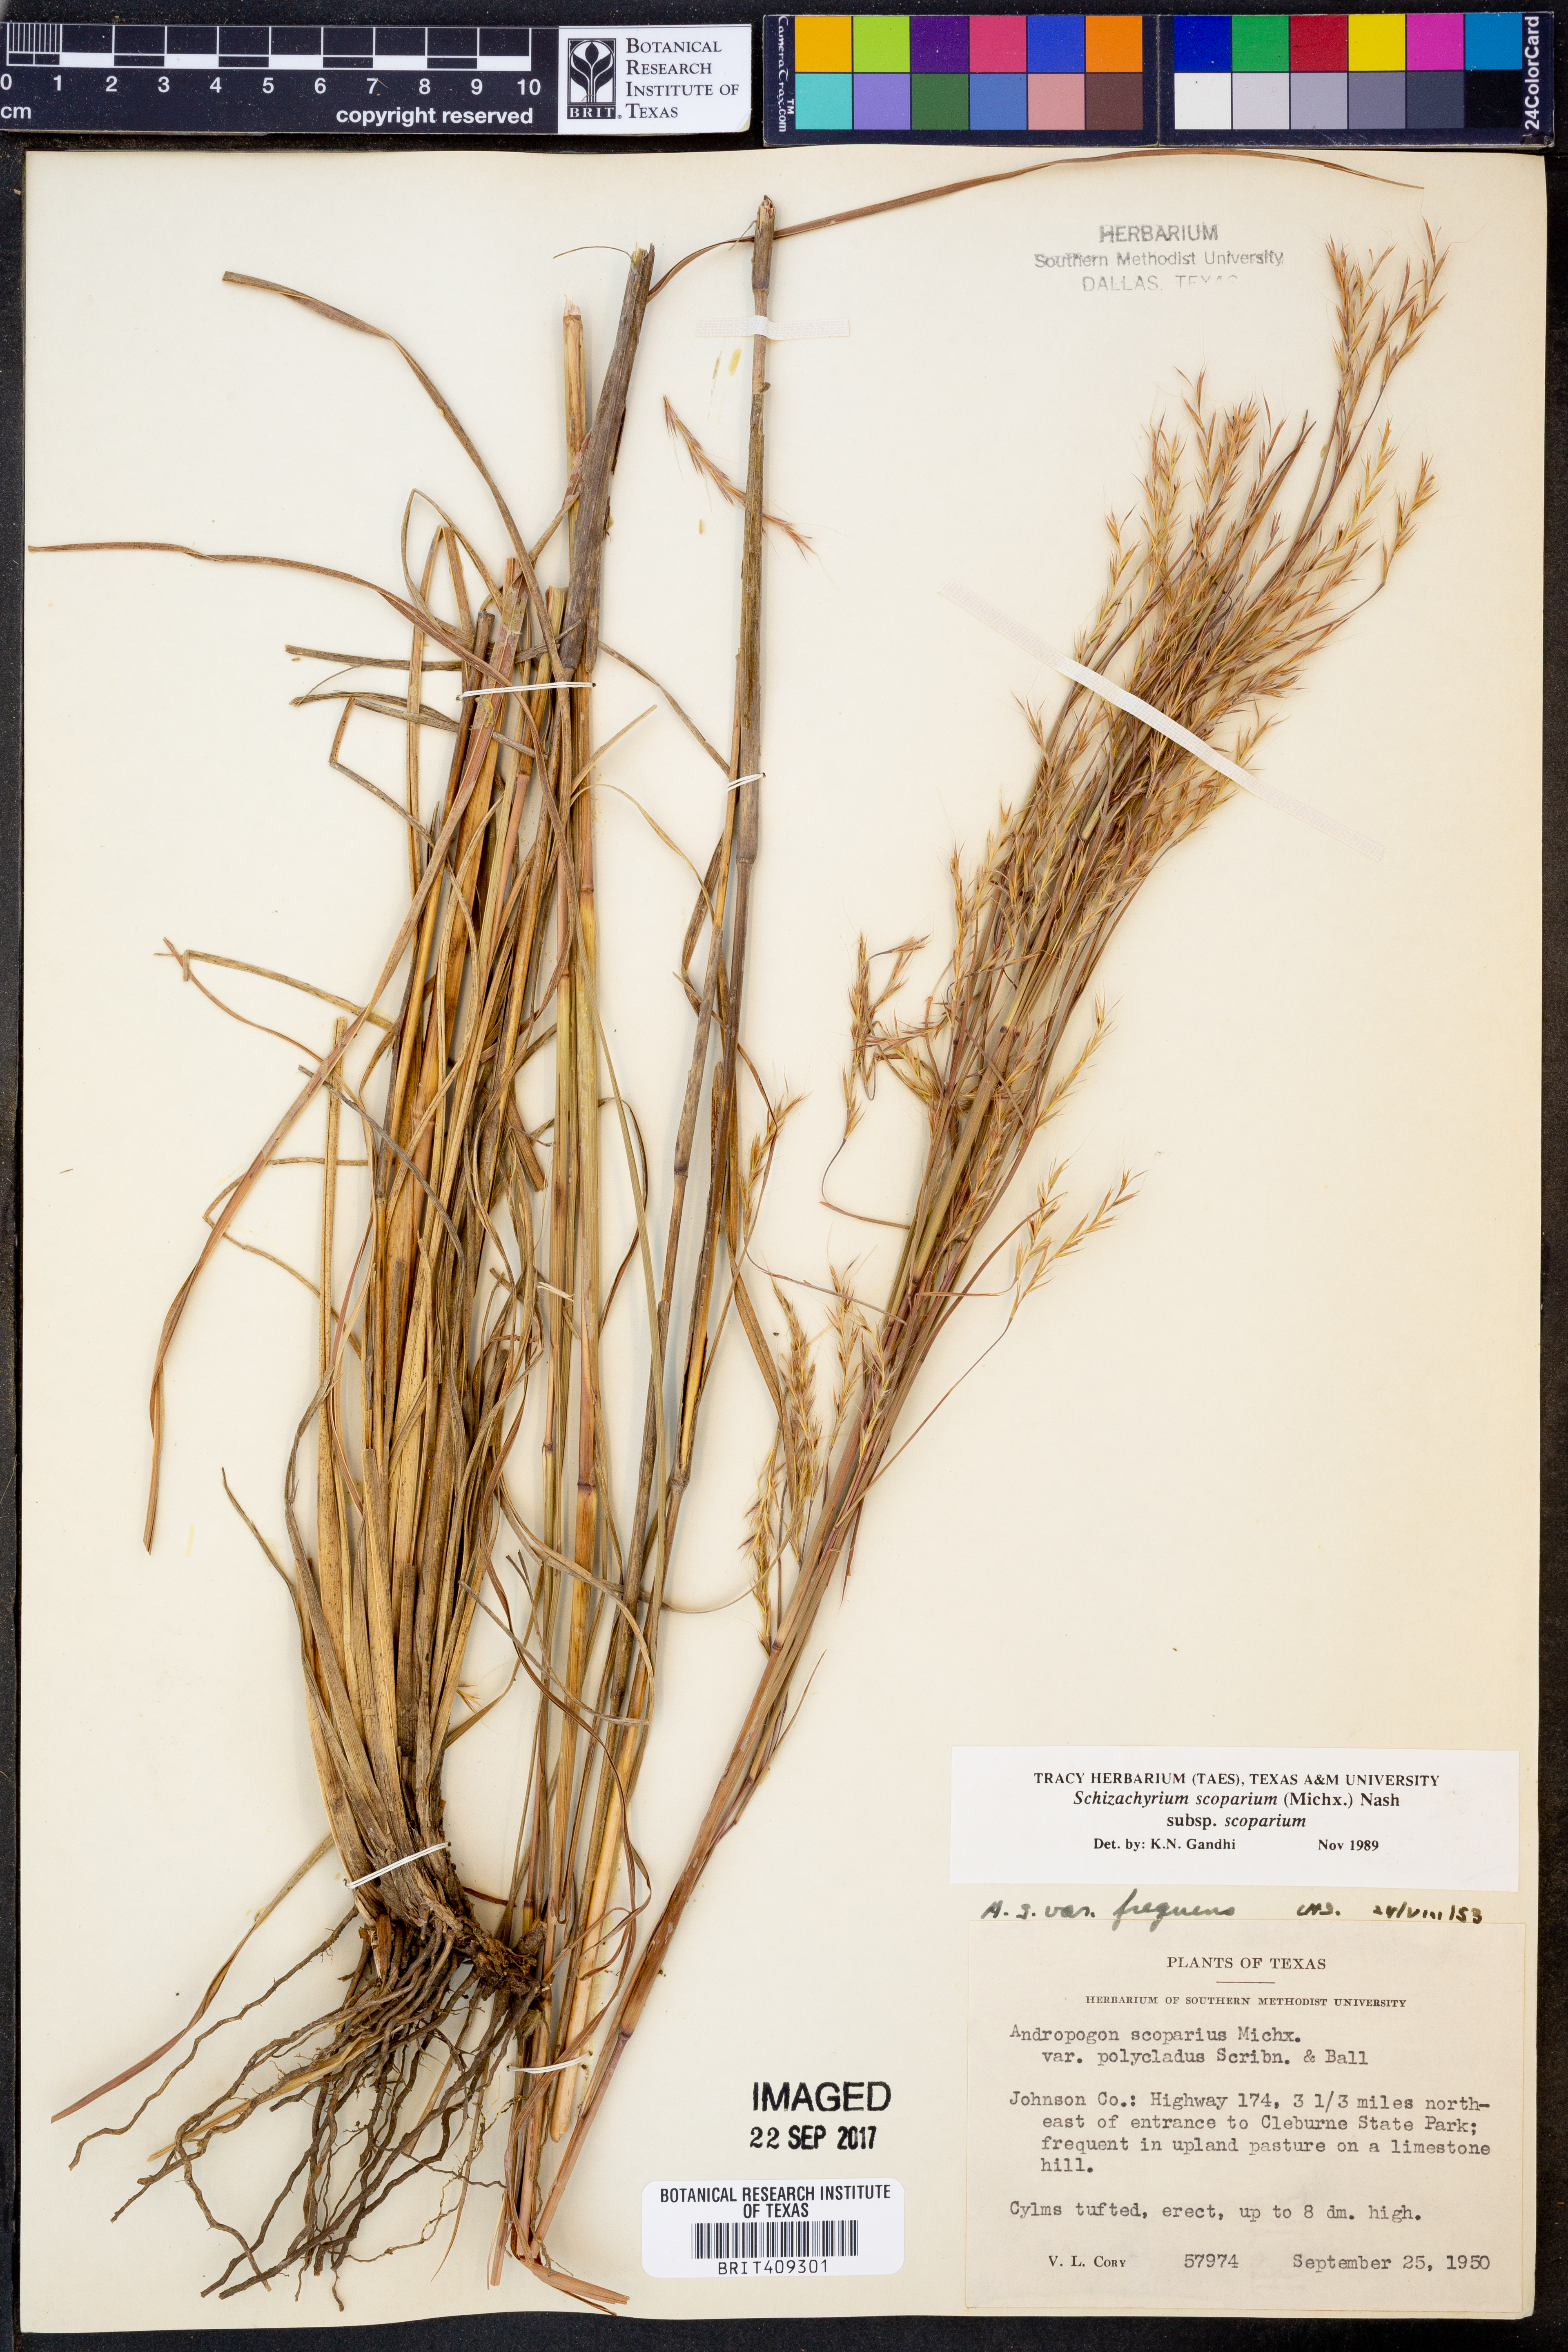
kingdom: Plantae
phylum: Tracheophyta
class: Liliopsida
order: Poales
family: Poaceae
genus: Schizachyrium
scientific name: Schizachyrium scoparium
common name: Little bluestem
